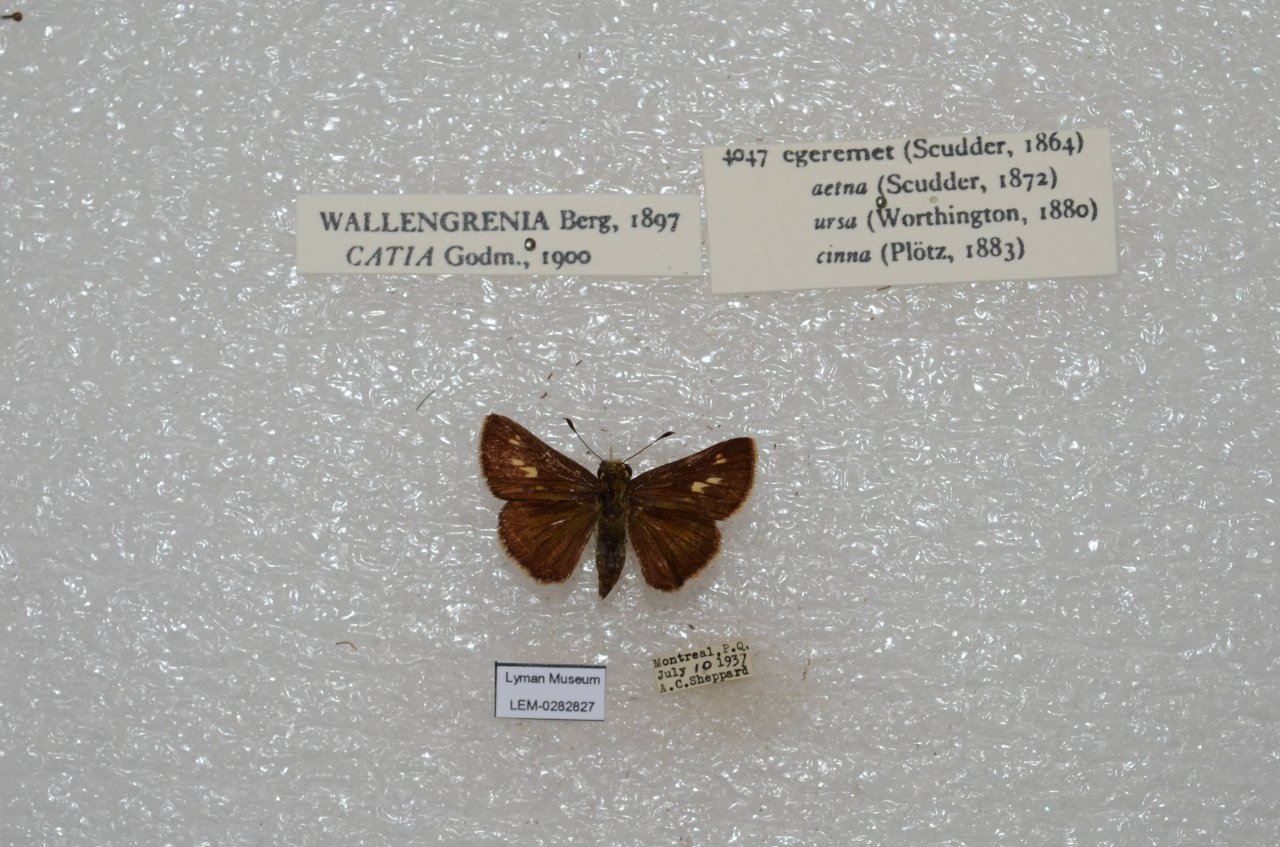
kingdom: Animalia
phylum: Arthropoda
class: Insecta
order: Lepidoptera
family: Hesperiidae
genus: Polites
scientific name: Polites egeremet
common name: Northern Broken-Dash
